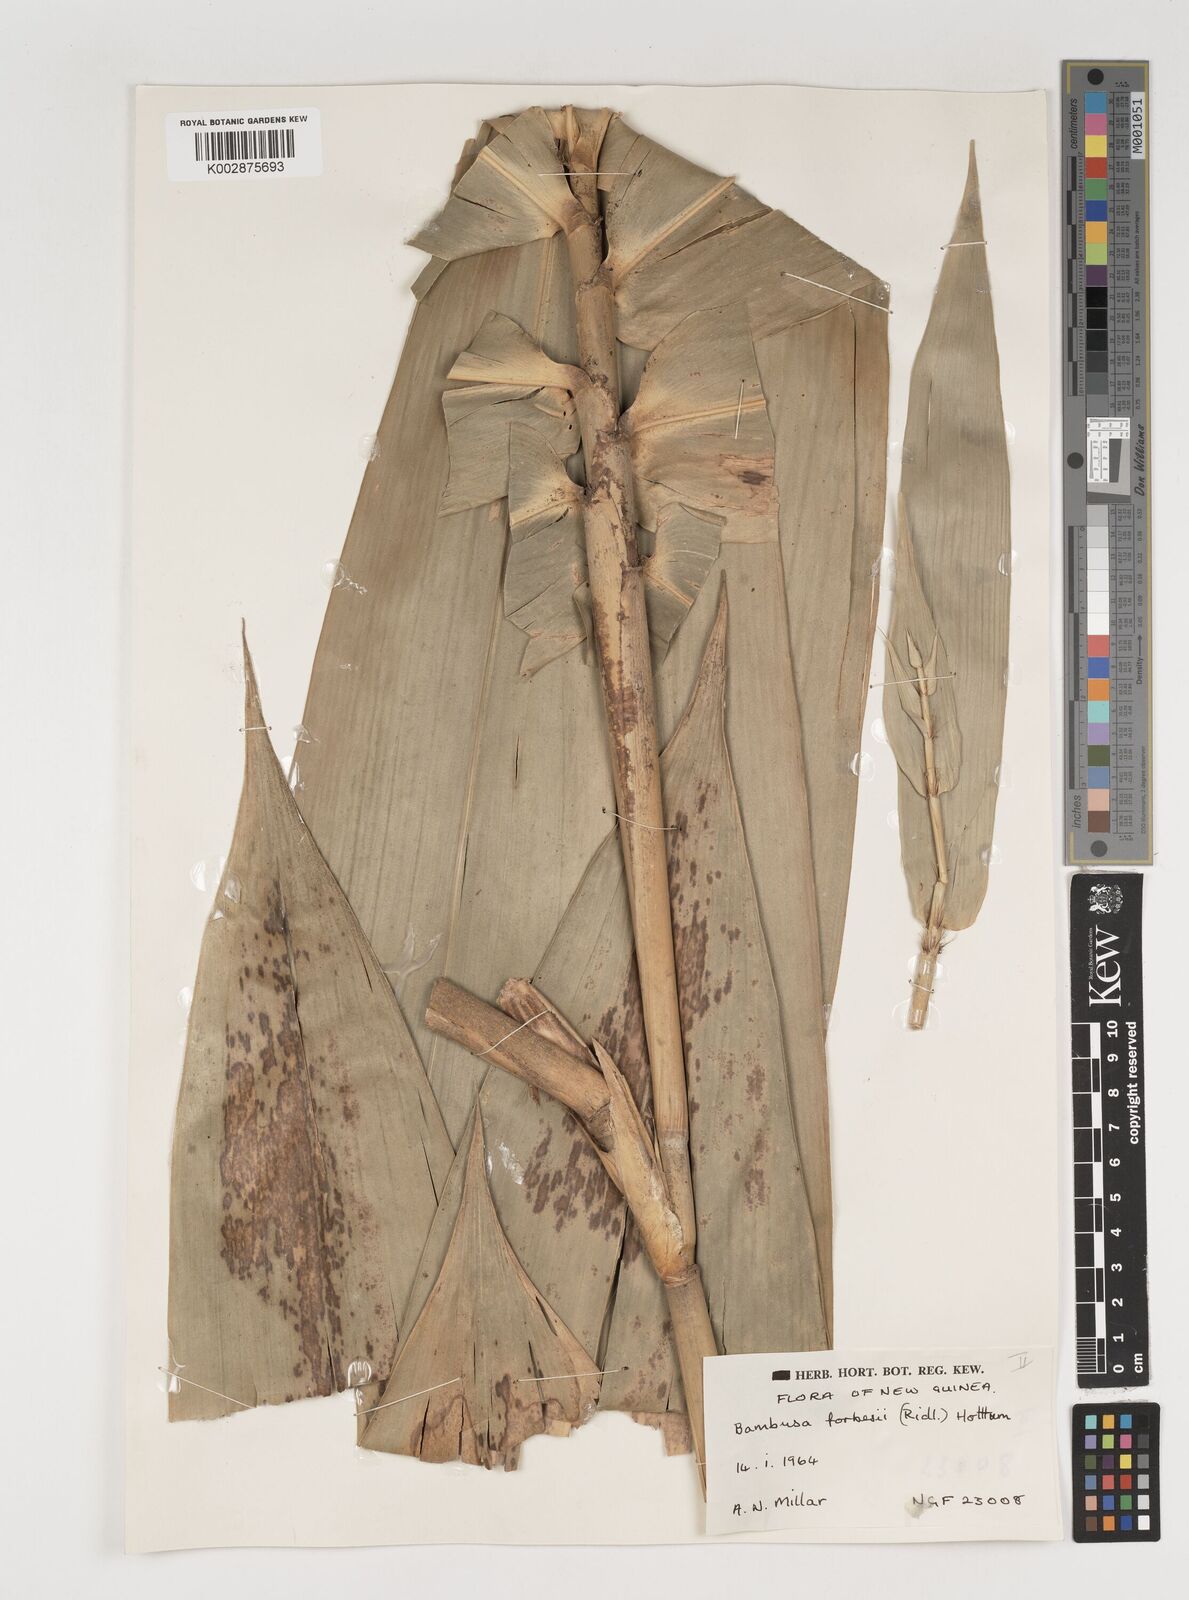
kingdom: Plantae
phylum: Tracheophyta
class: Liliopsida
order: Poales
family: Poaceae
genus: Neololeba
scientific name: Neololeba atra
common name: Cape bamboo
